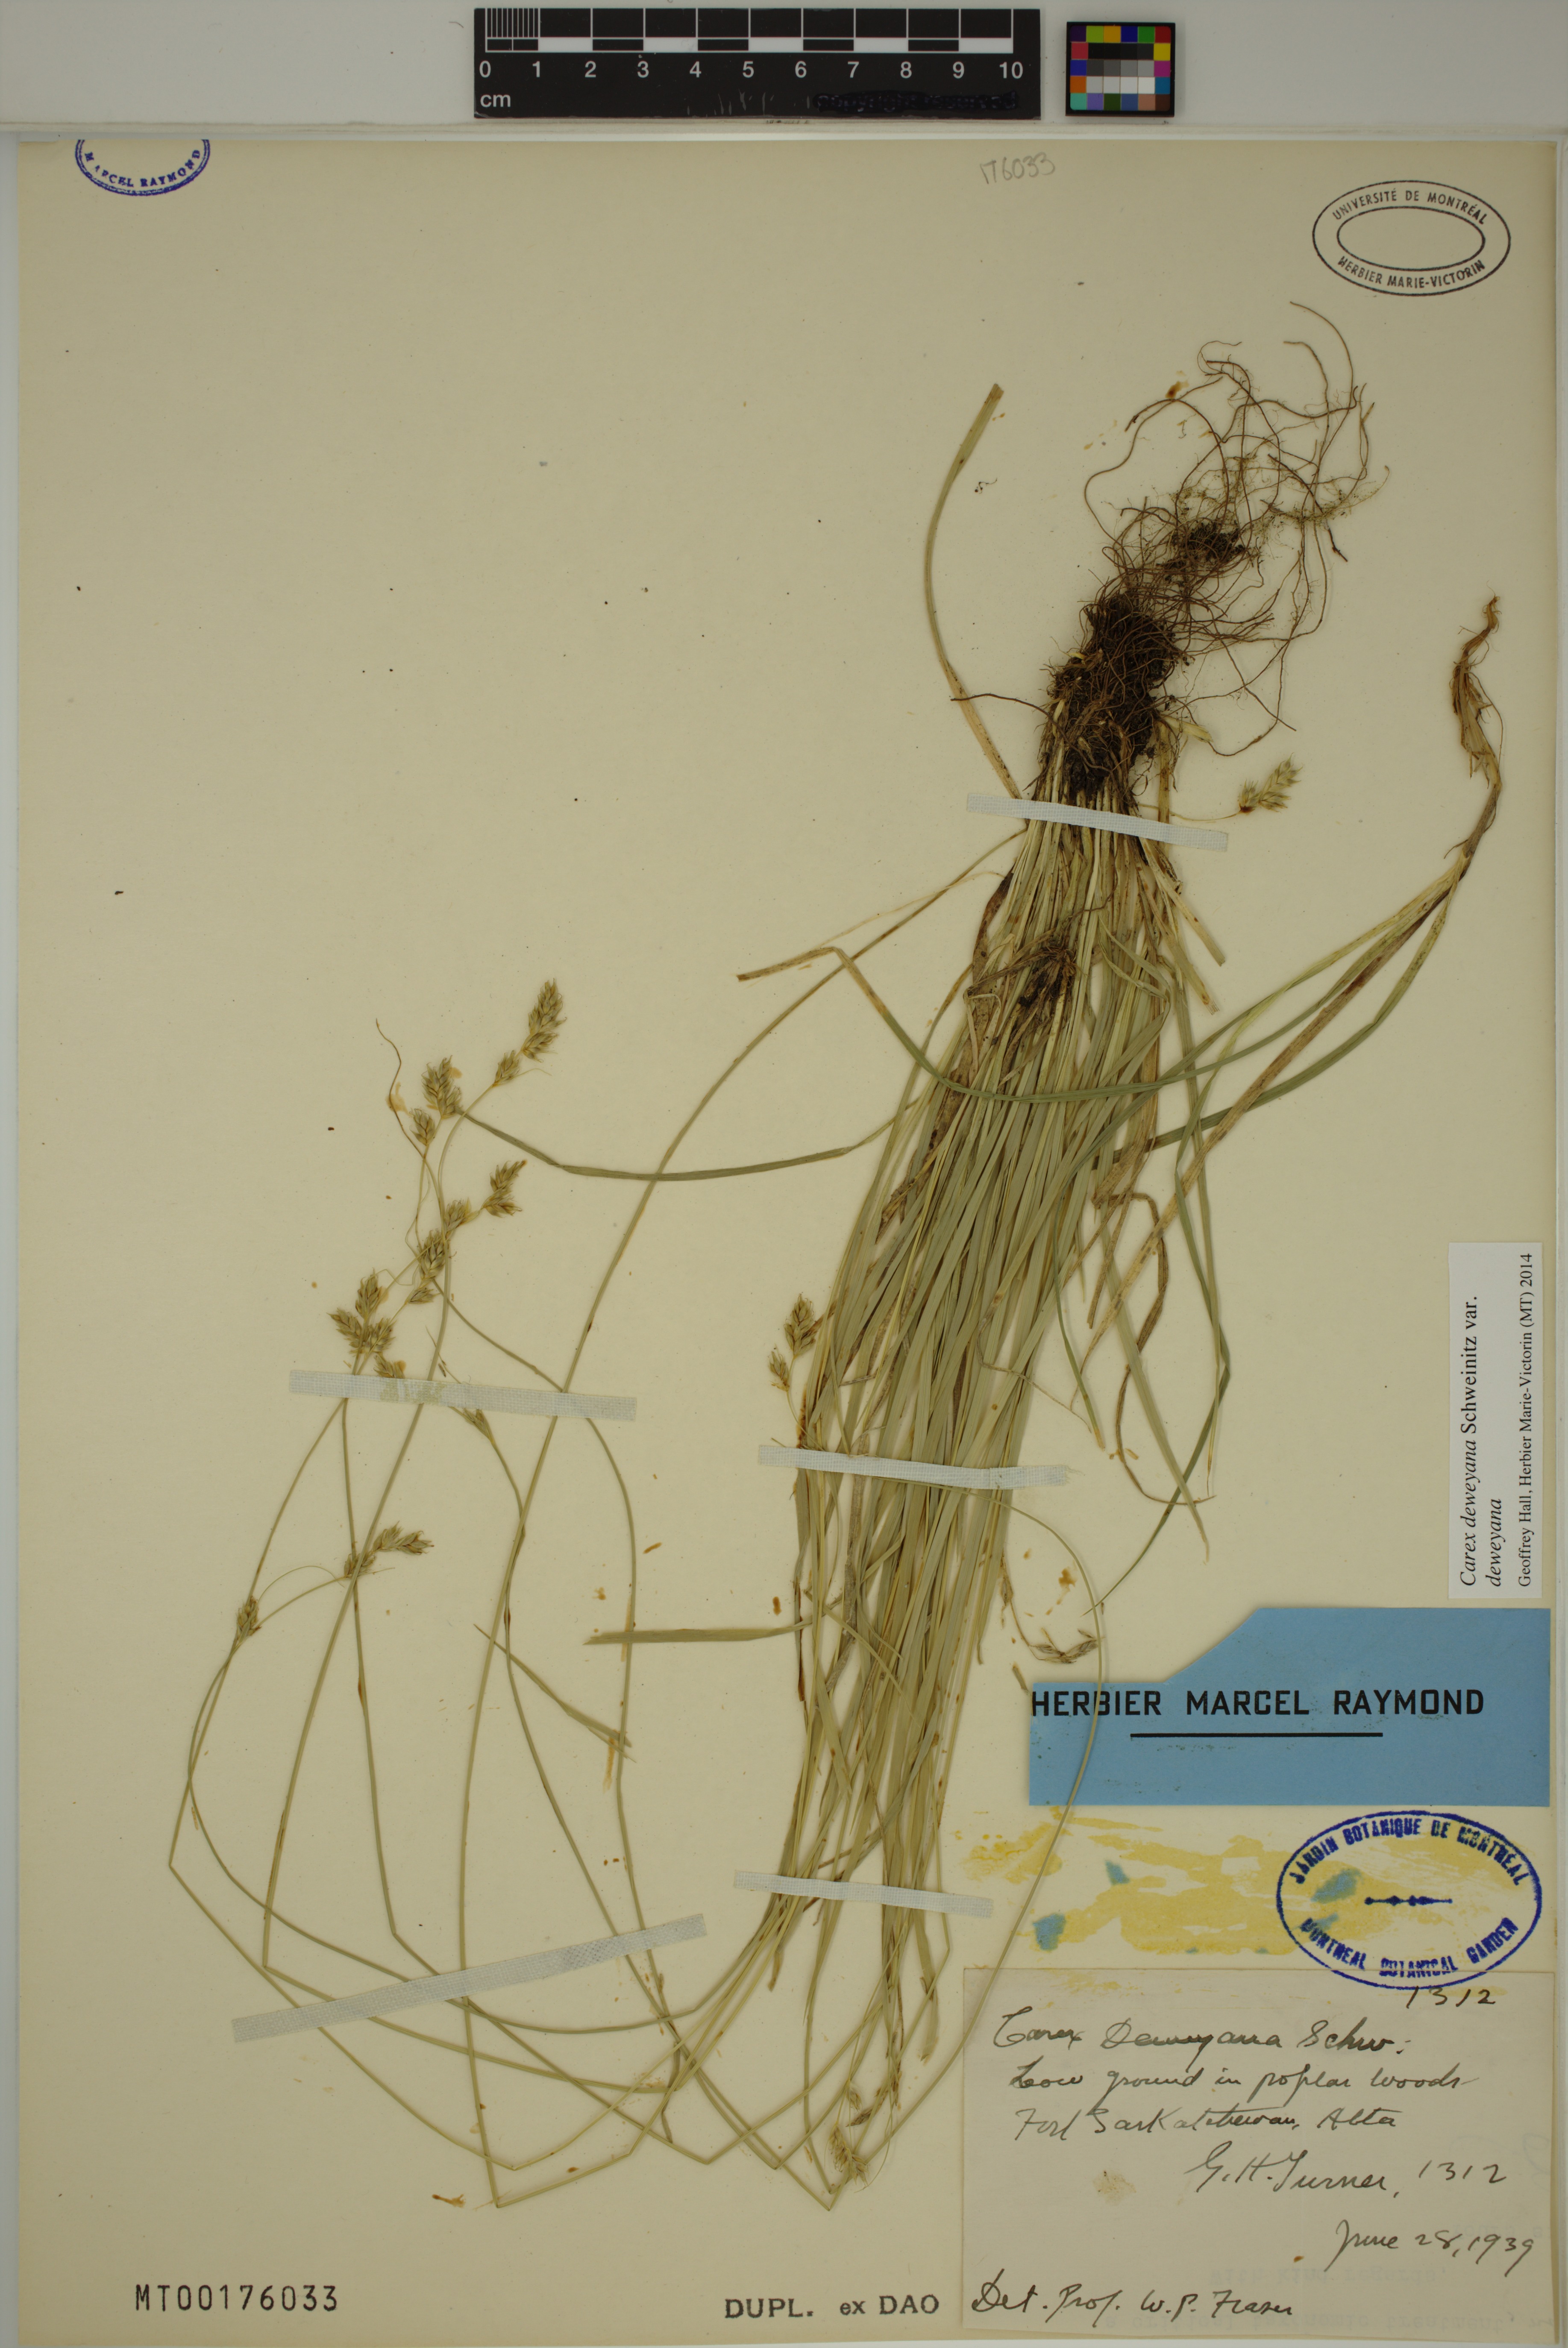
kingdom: Plantae
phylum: Tracheophyta
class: Liliopsida
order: Poales
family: Cyperaceae
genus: Carex
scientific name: Carex deweyana
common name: Dewey's sedge
